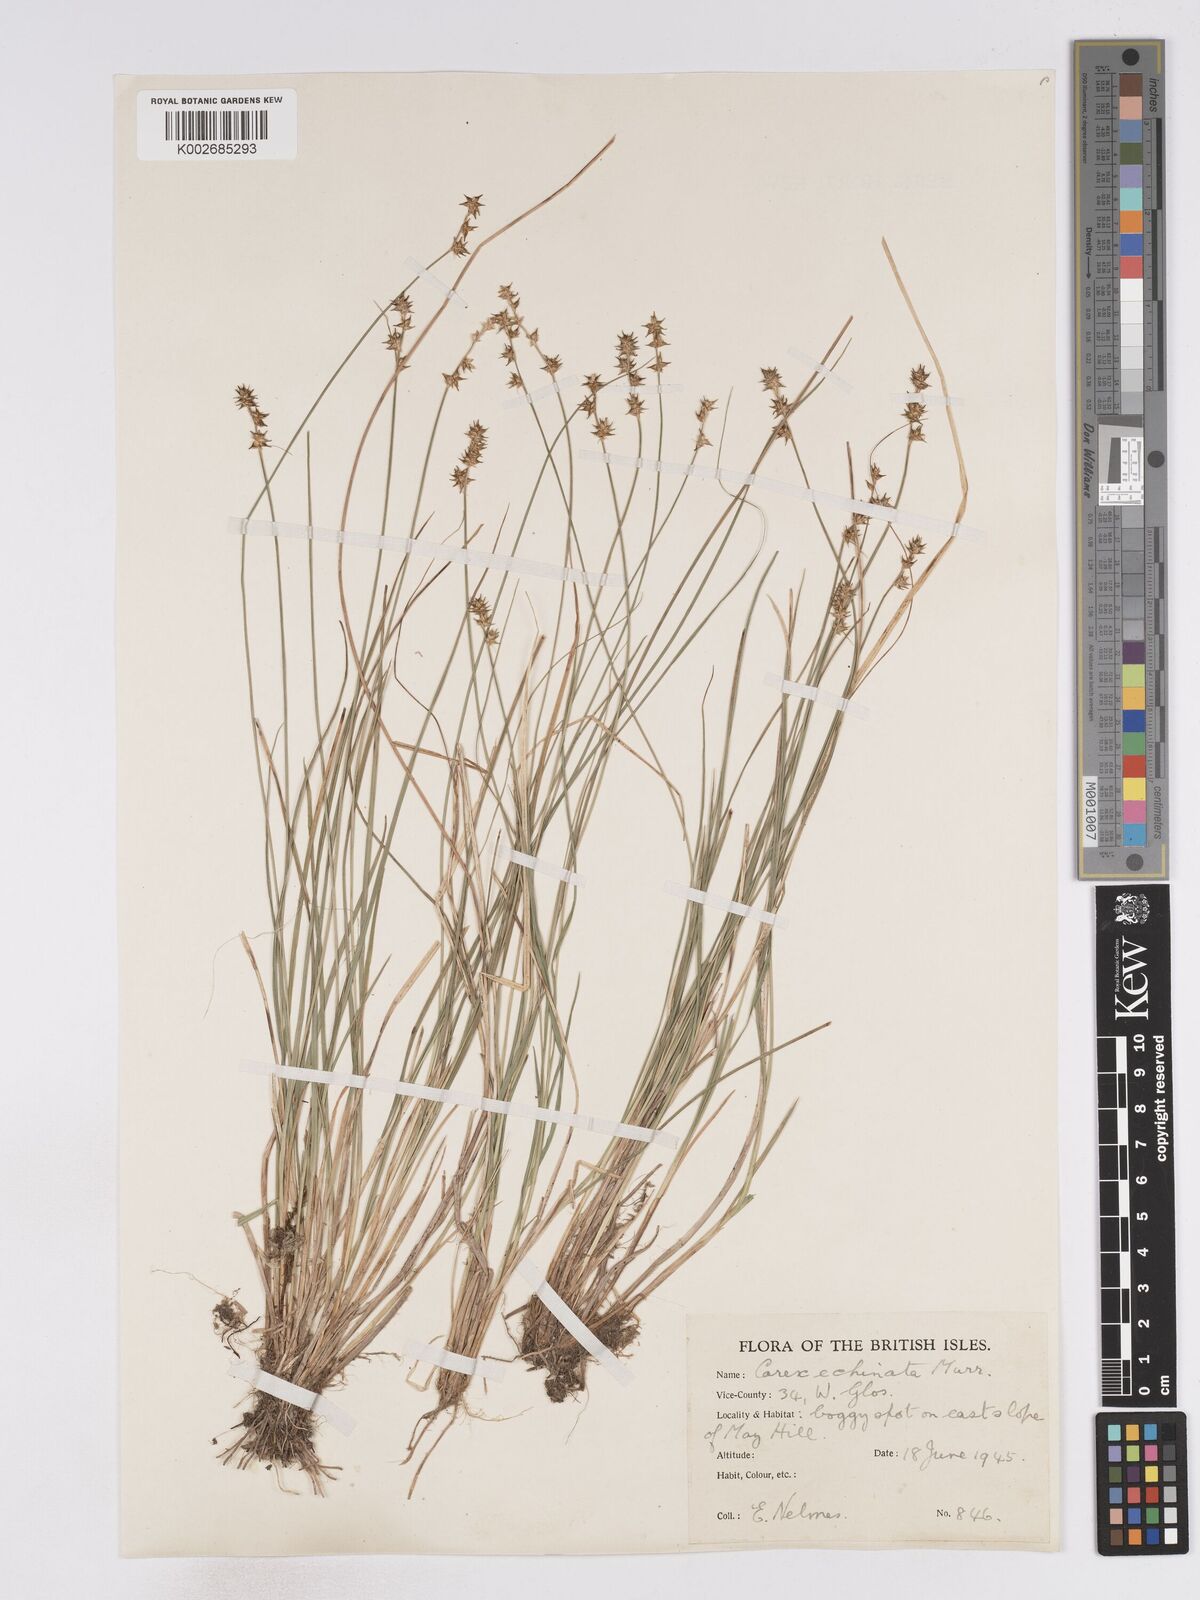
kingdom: Plantae
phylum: Tracheophyta
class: Liliopsida
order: Poales
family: Cyperaceae
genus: Carex
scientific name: Carex echinata
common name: Star sedge
